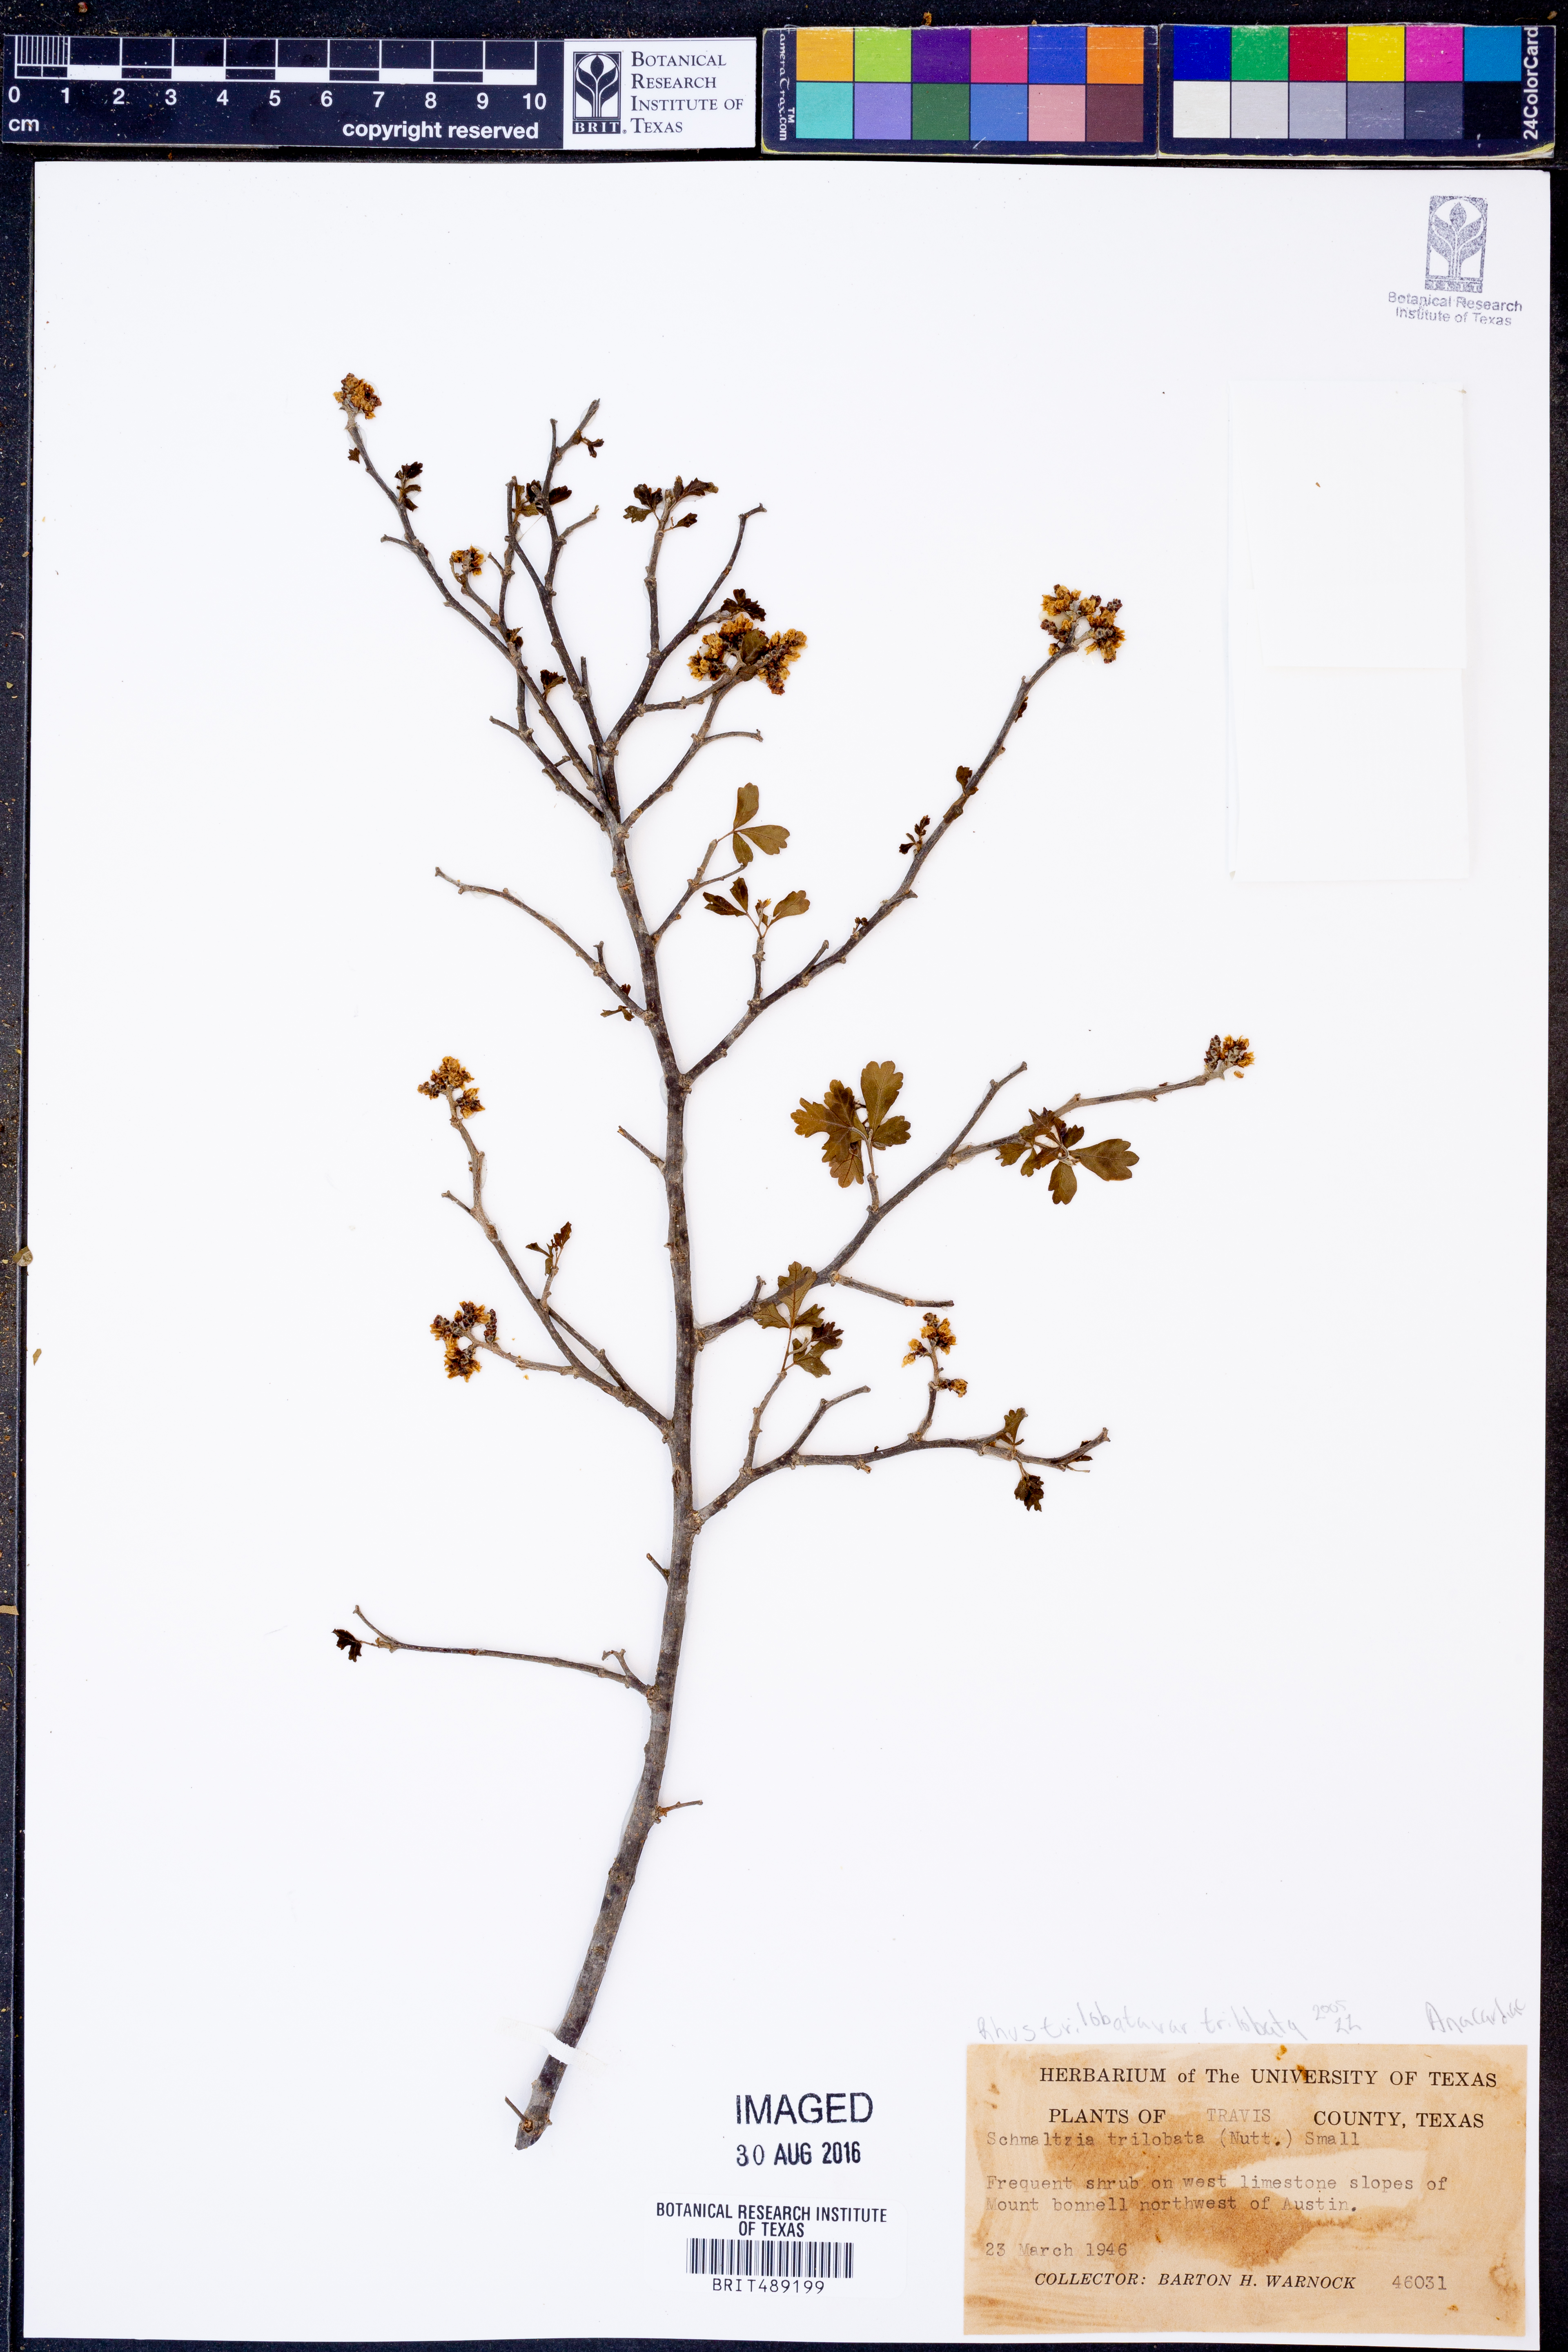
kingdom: Plantae
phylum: Tracheophyta
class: Magnoliopsida
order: Sapindales
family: Anacardiaceae
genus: Rhus
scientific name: Rhus trilobata
